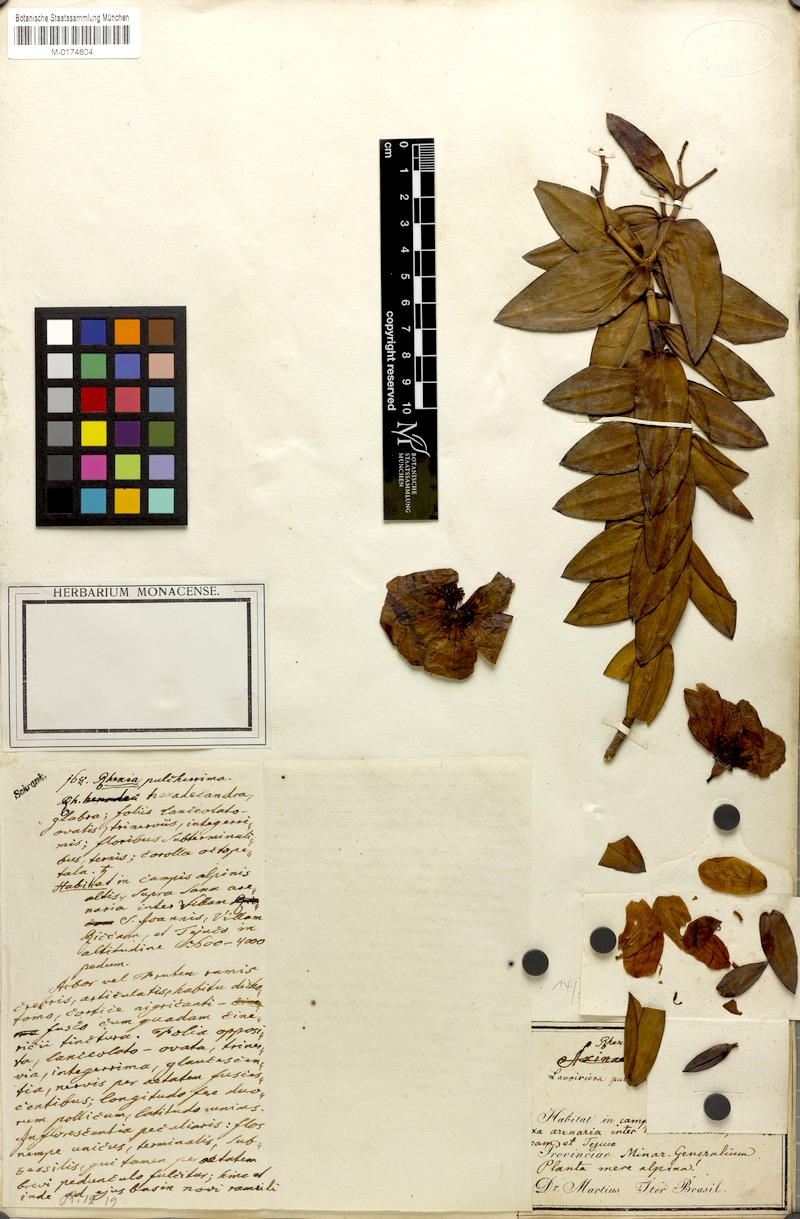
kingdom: Plantae
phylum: Tracheophyta
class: Magnoliopsida
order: Myrtales
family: Melastomataceae
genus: Microlicia
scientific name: Microlicia pulcherrima
